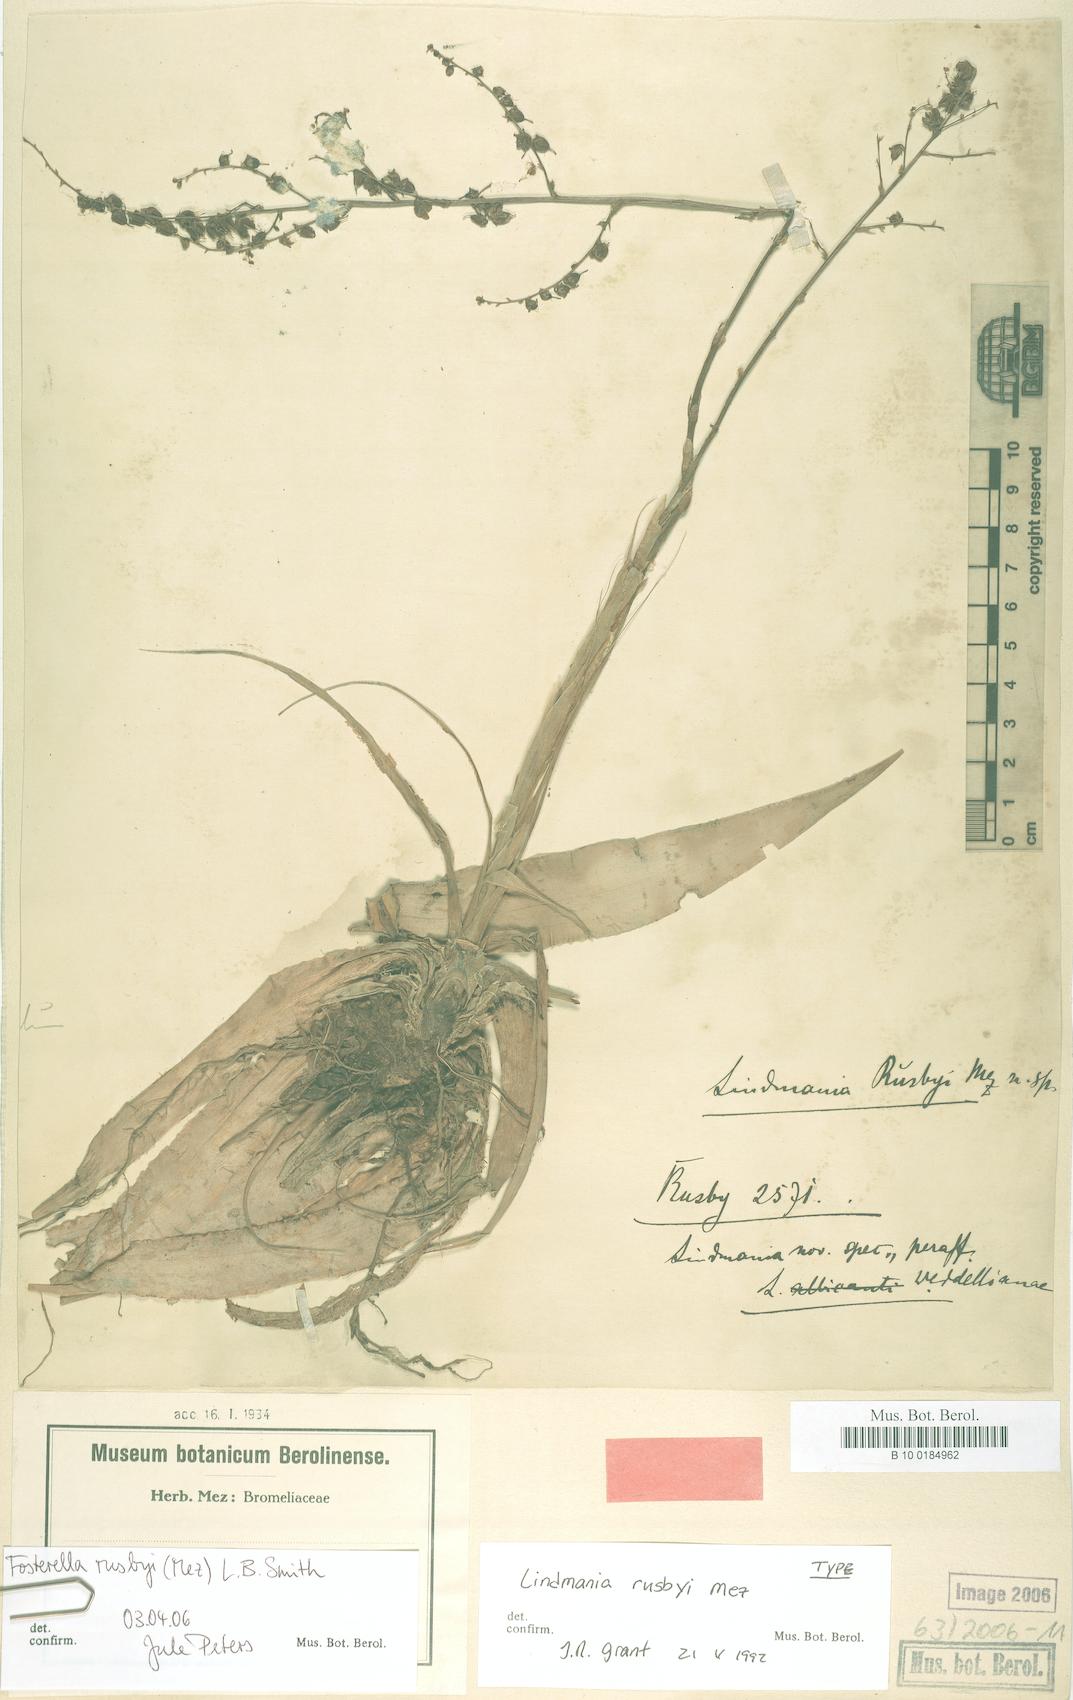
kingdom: Plantae
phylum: Tracheophyta
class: Liliopsida
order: Poales
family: Bromeliaceae
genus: Fosterella
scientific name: Fosterella rusbyi
